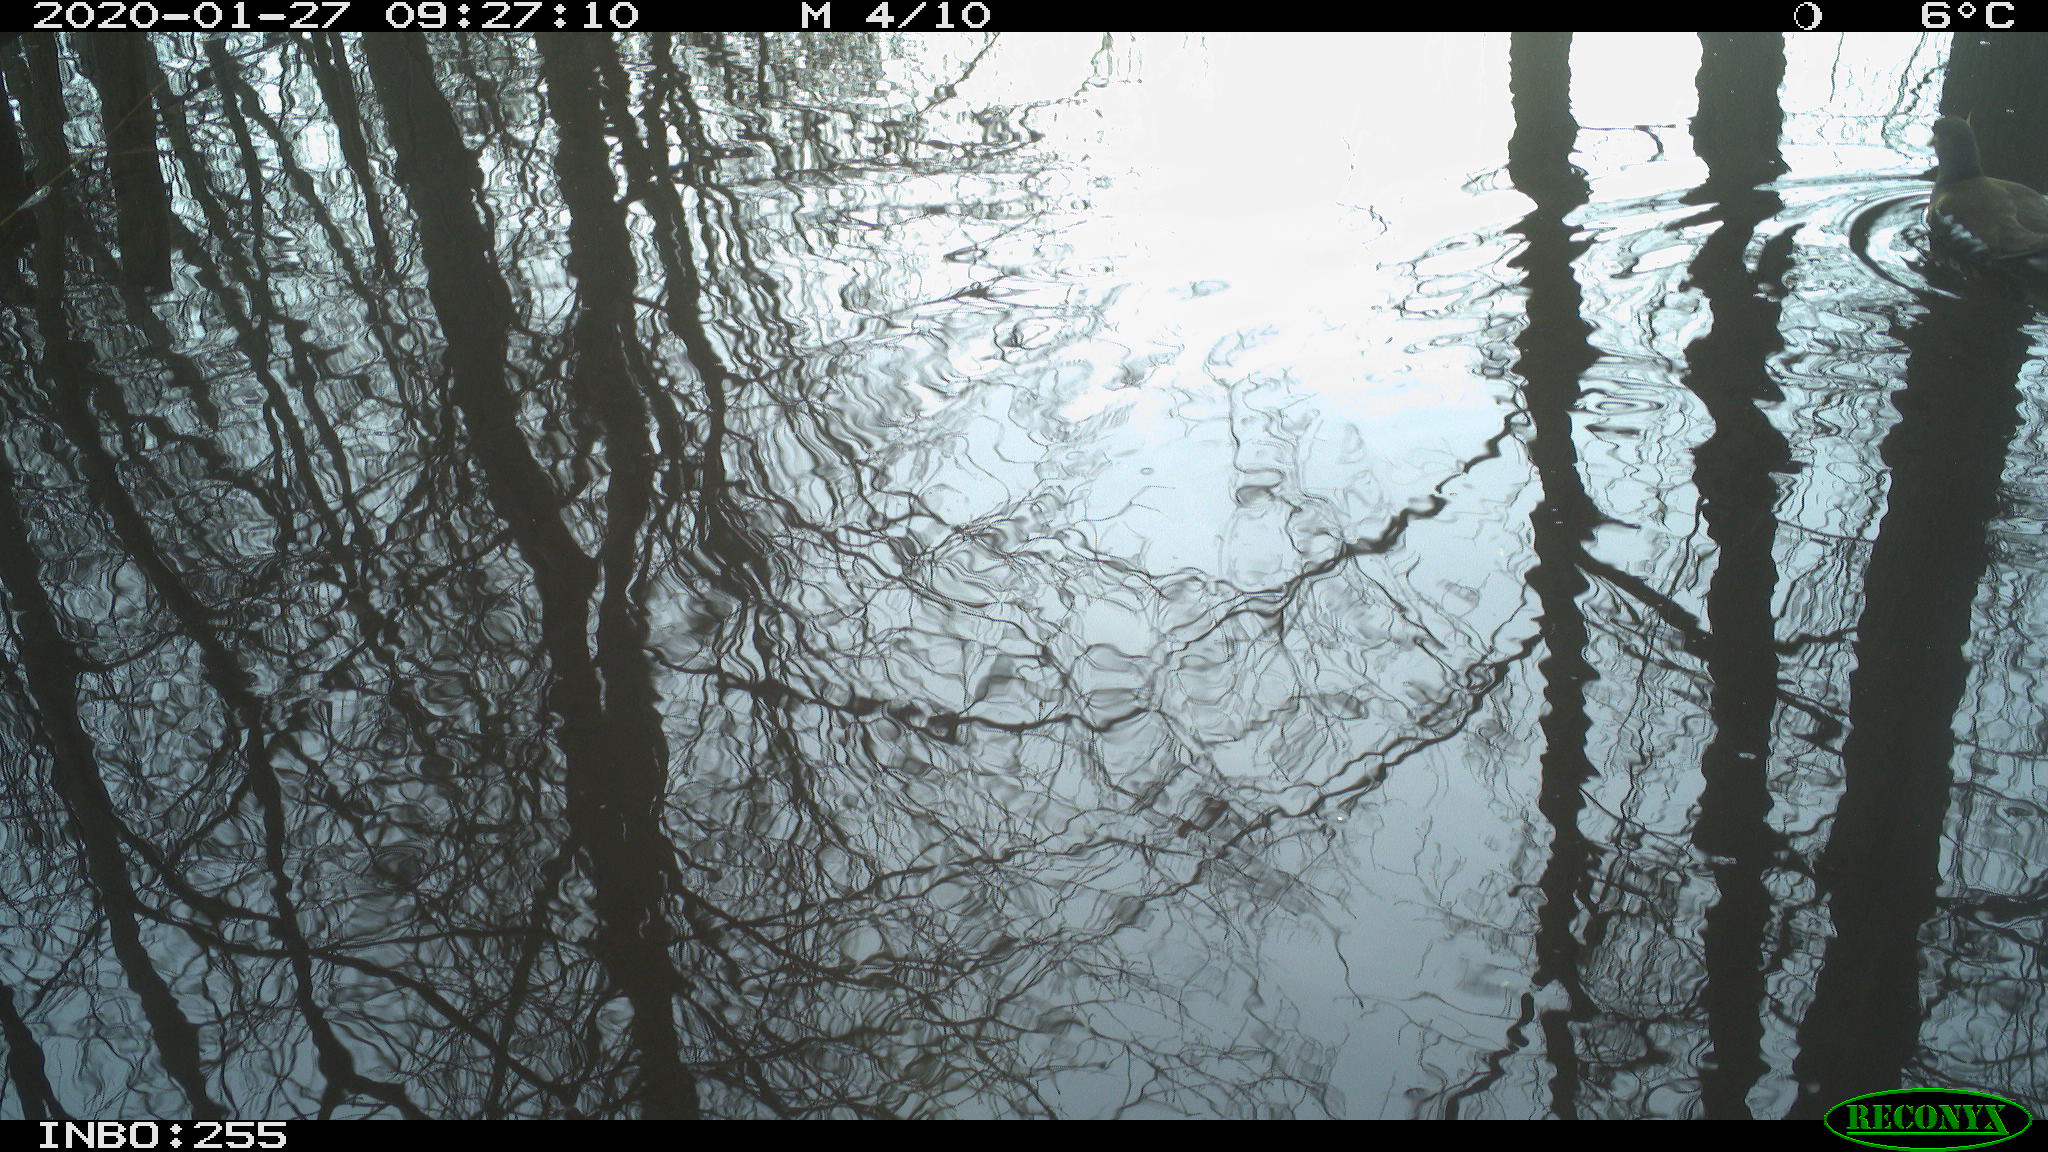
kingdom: Animalia
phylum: Chordata
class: Aves
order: Gruiformes
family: Rallidae
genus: Gallinula
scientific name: Gallinula chloropus
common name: Common moorhen
